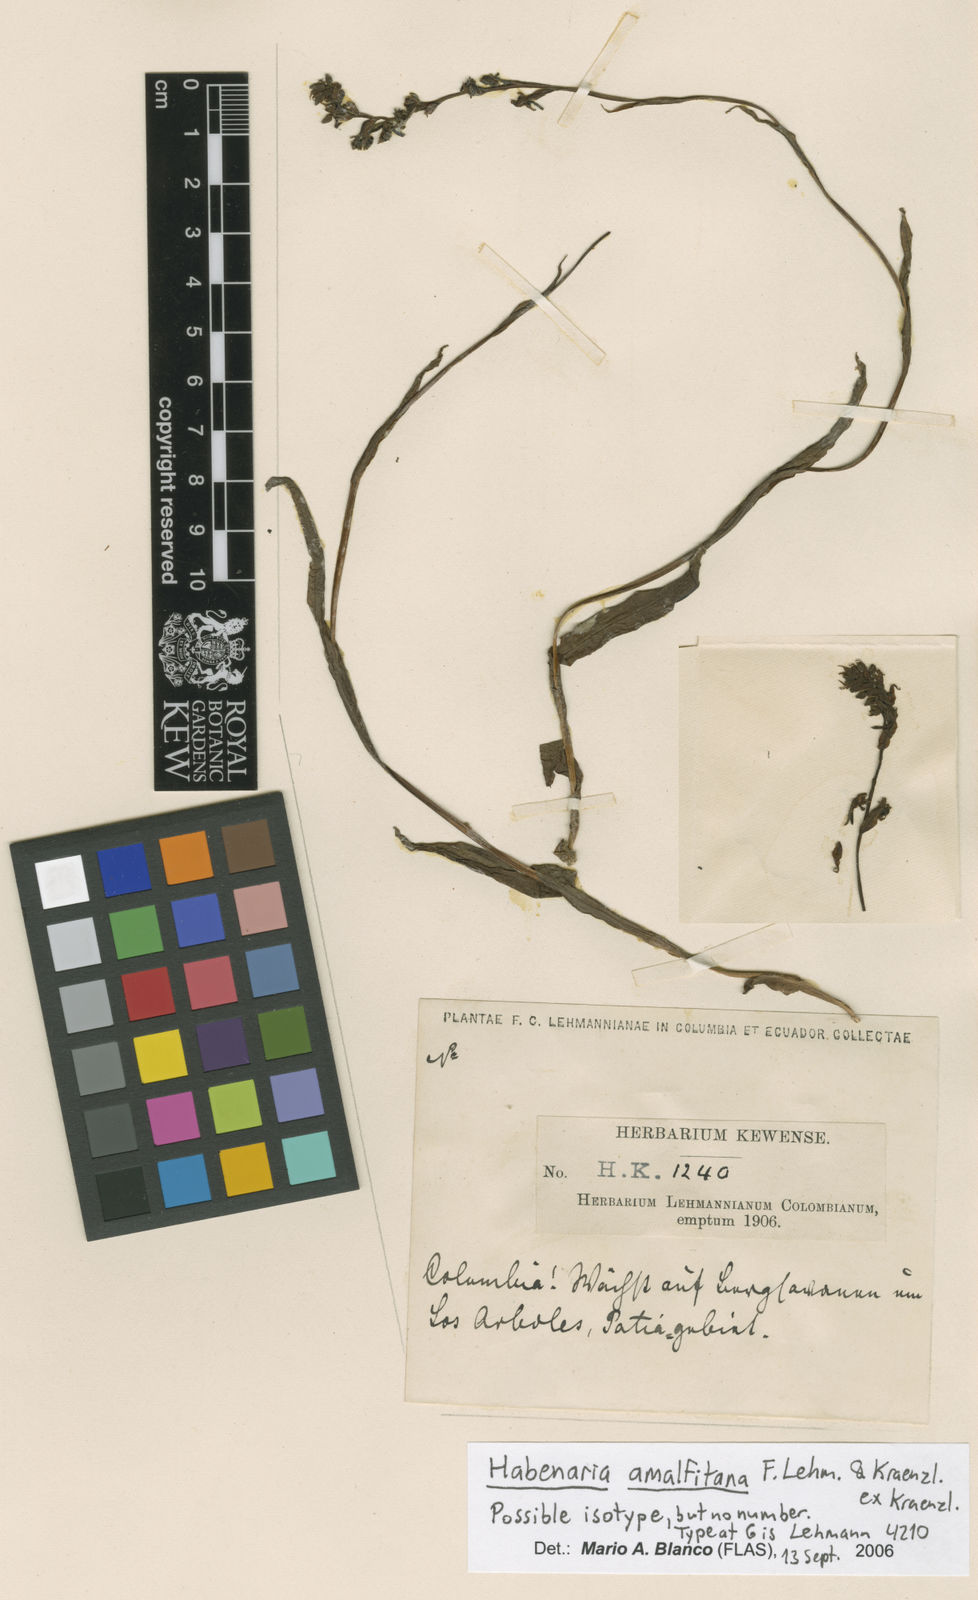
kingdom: Plantae
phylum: Tracheophyta
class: Liliopsida
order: Asparagales
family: Orchidaceae
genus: Habenaria
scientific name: Habenaria leprieurii
